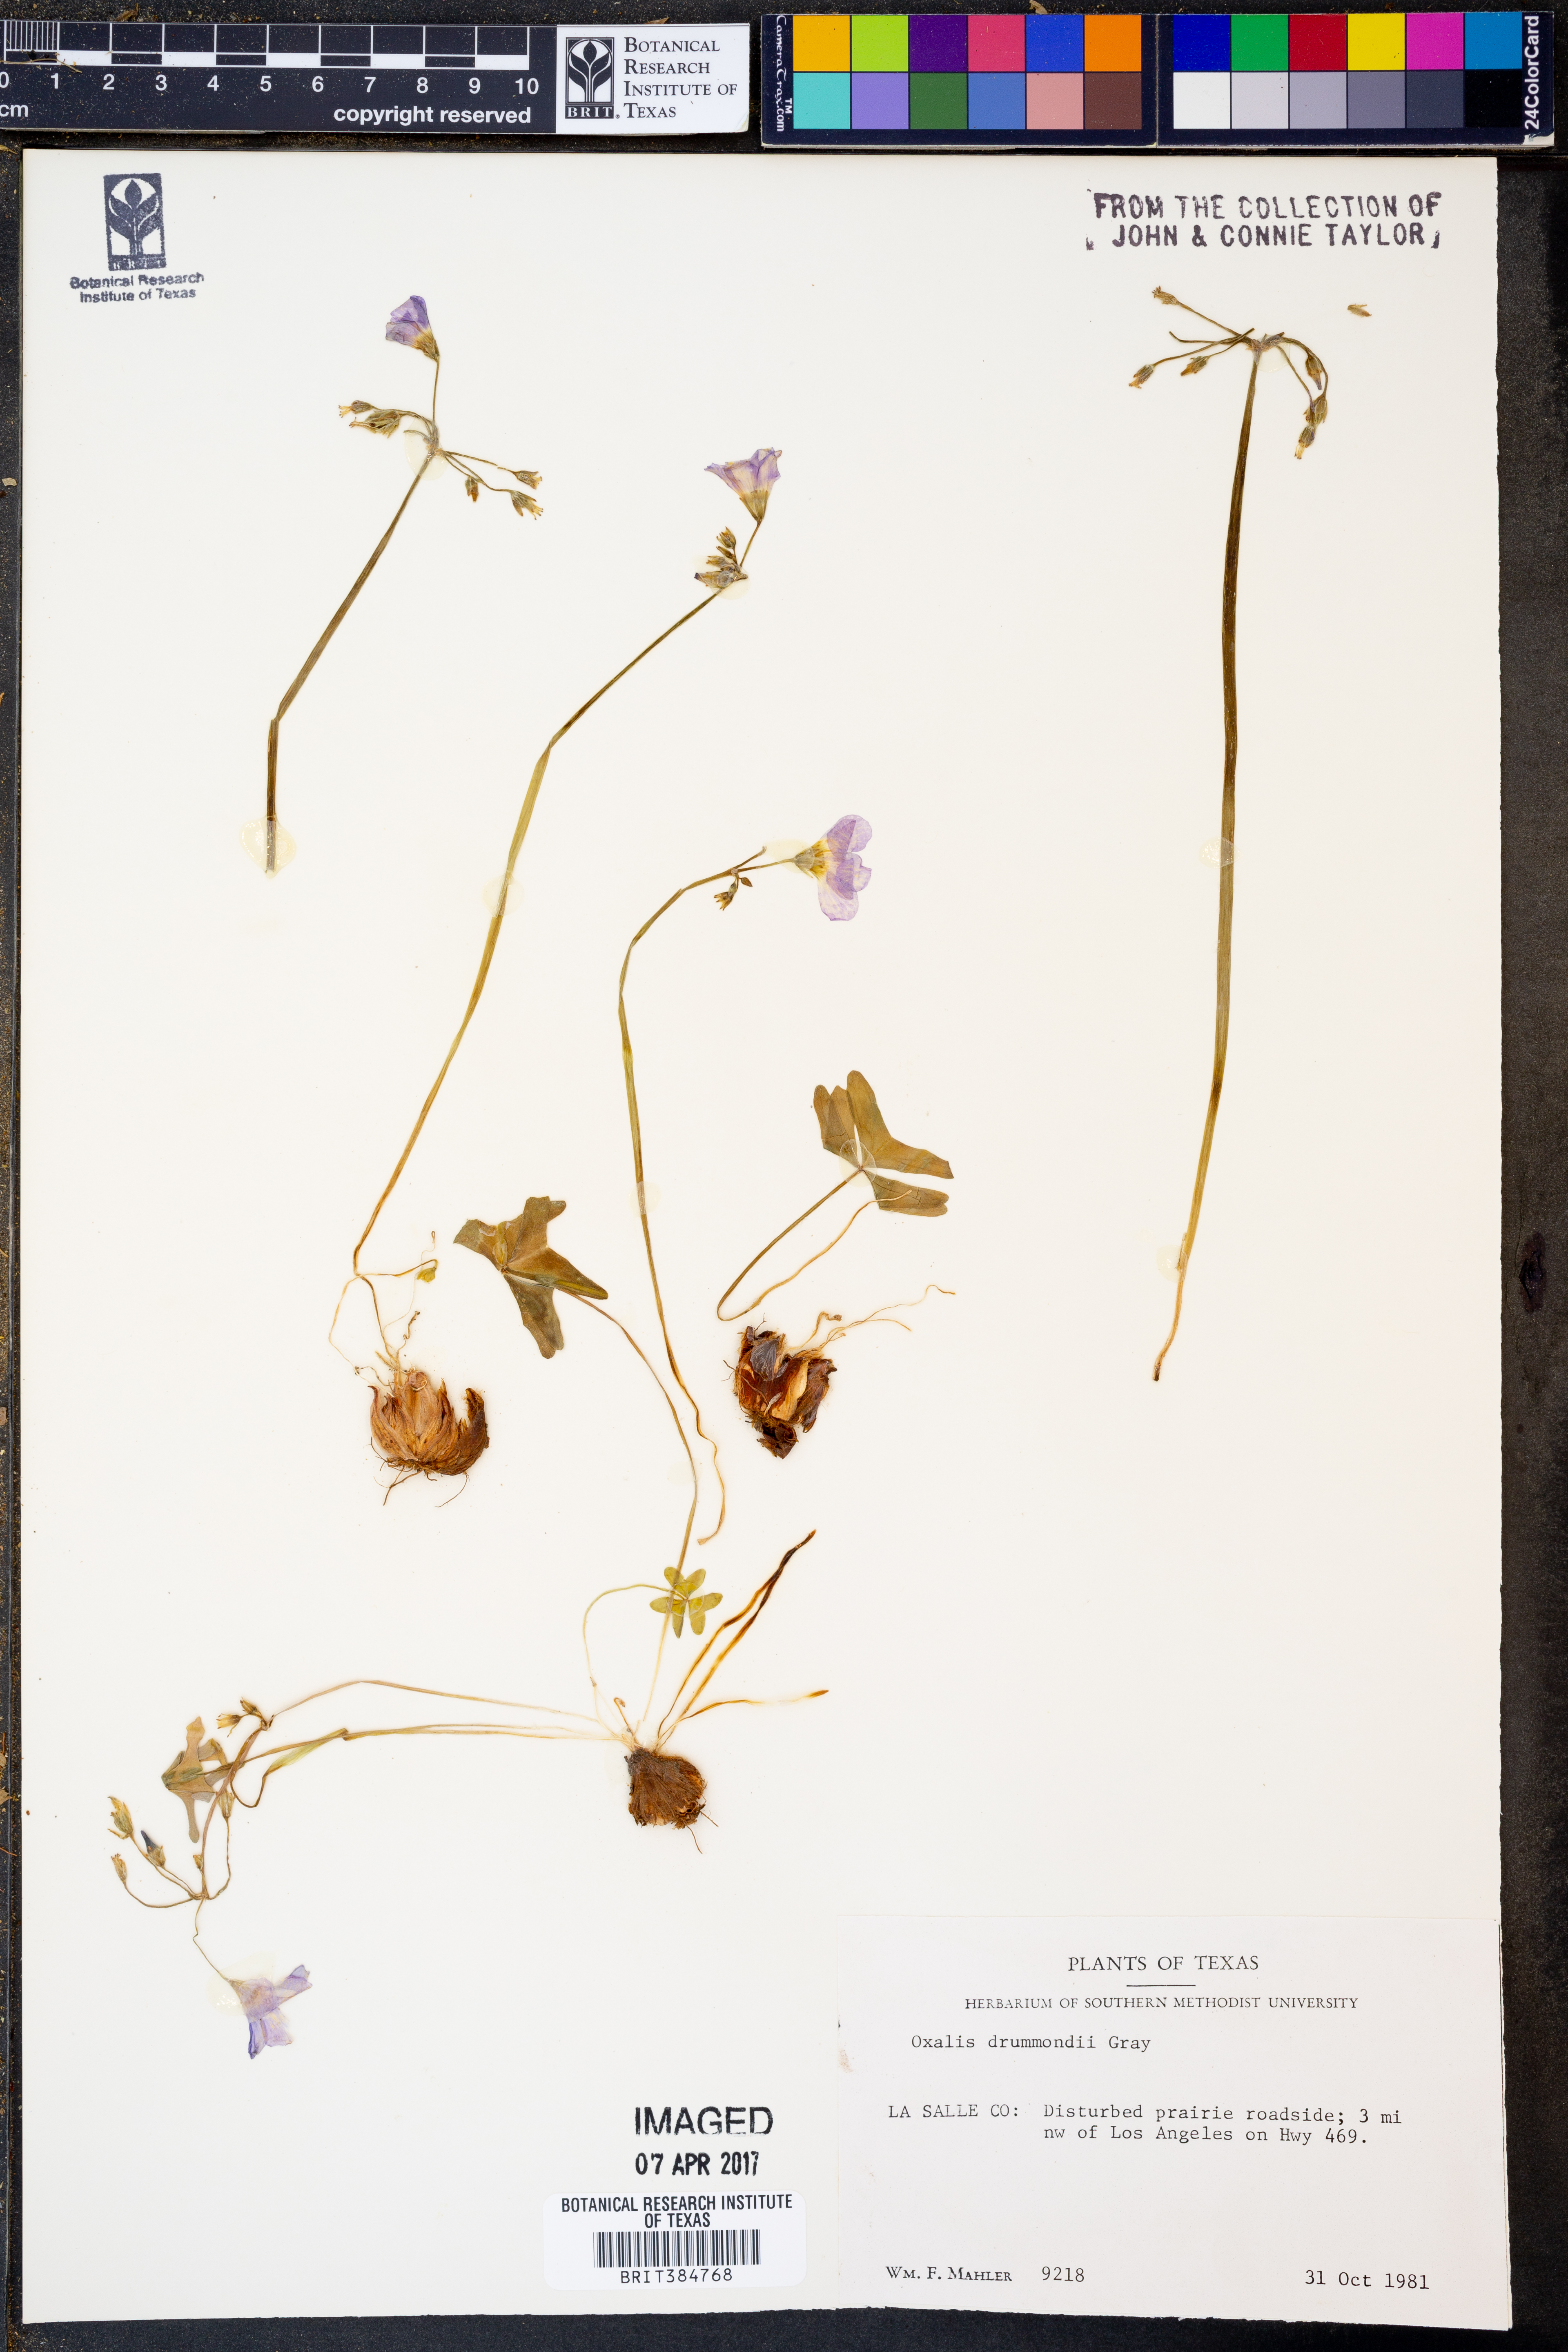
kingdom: Plantae
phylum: Tracheophyta
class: Magnoliopsida
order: Oxalidales
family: Oxalidaceae
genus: Oxalis
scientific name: Oxalis drummondii
